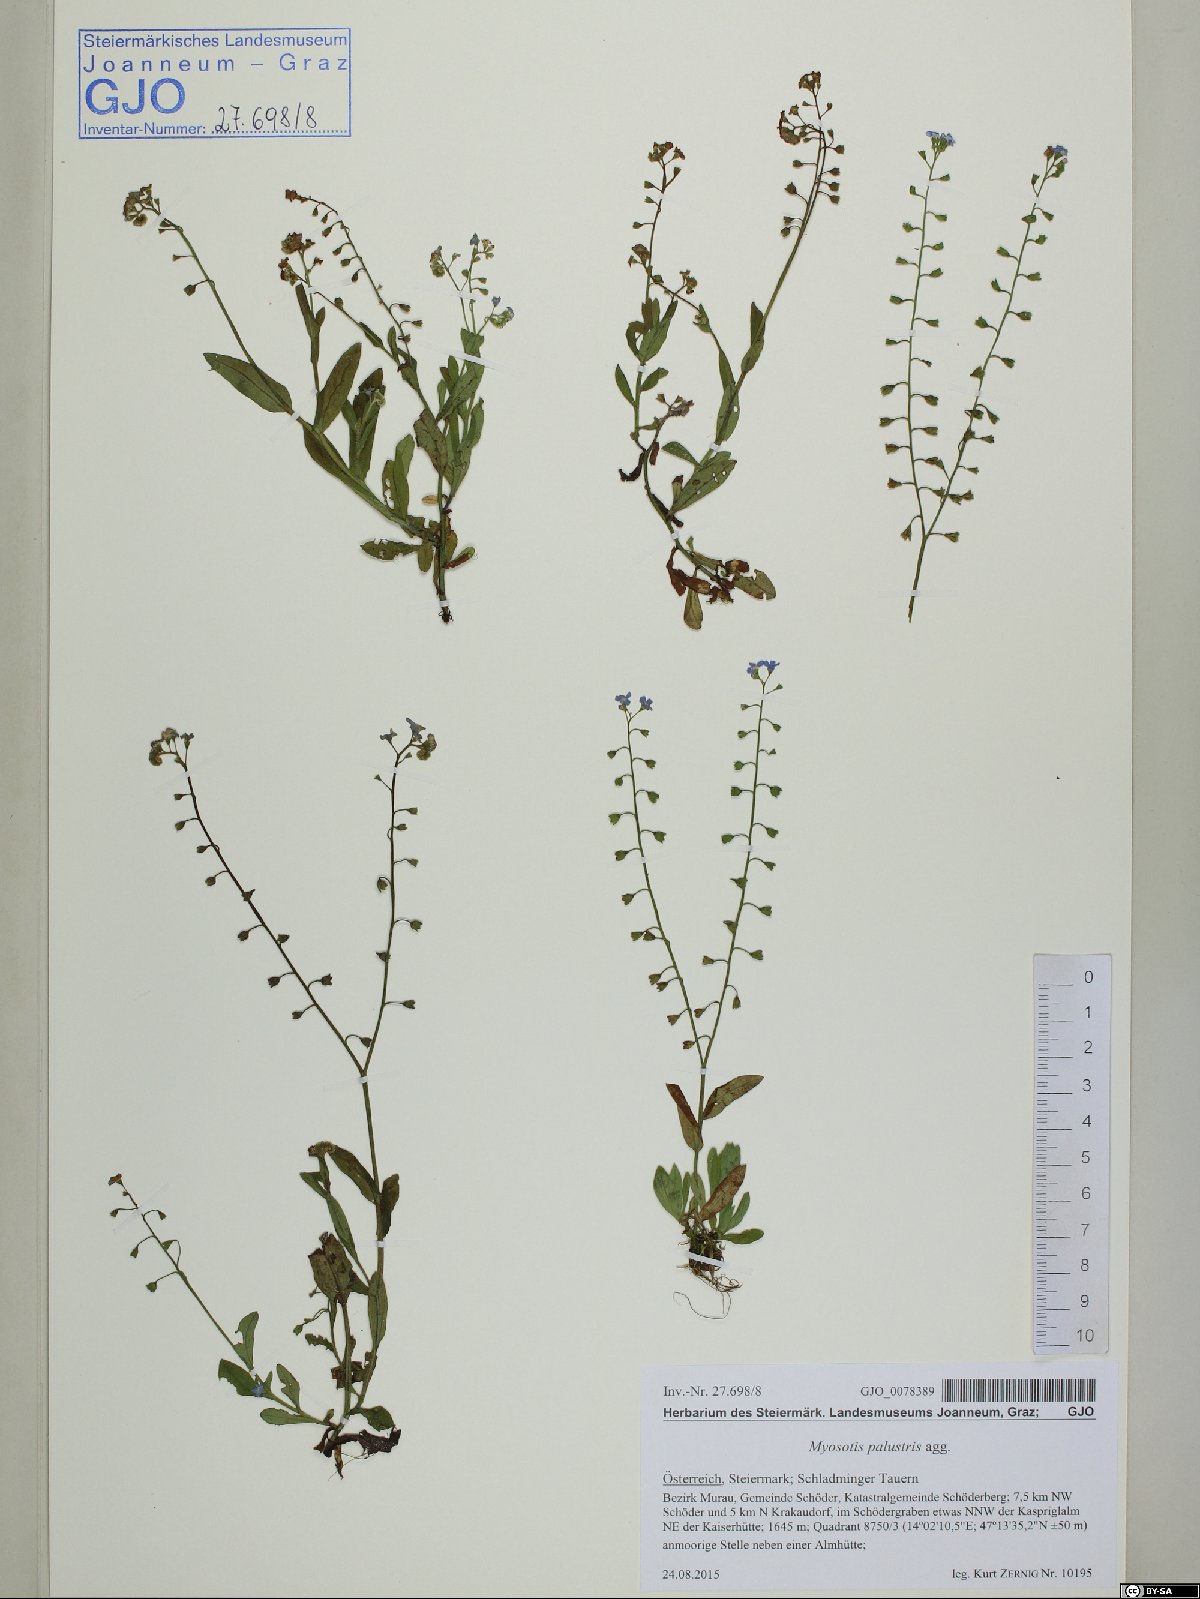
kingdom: Plantae
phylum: Tracheophyta
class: Magnoliopsida
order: Boraginales
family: Boraginaceae
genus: Myosotis
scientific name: Myosotis scorpioides
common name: Water forget-me-not
